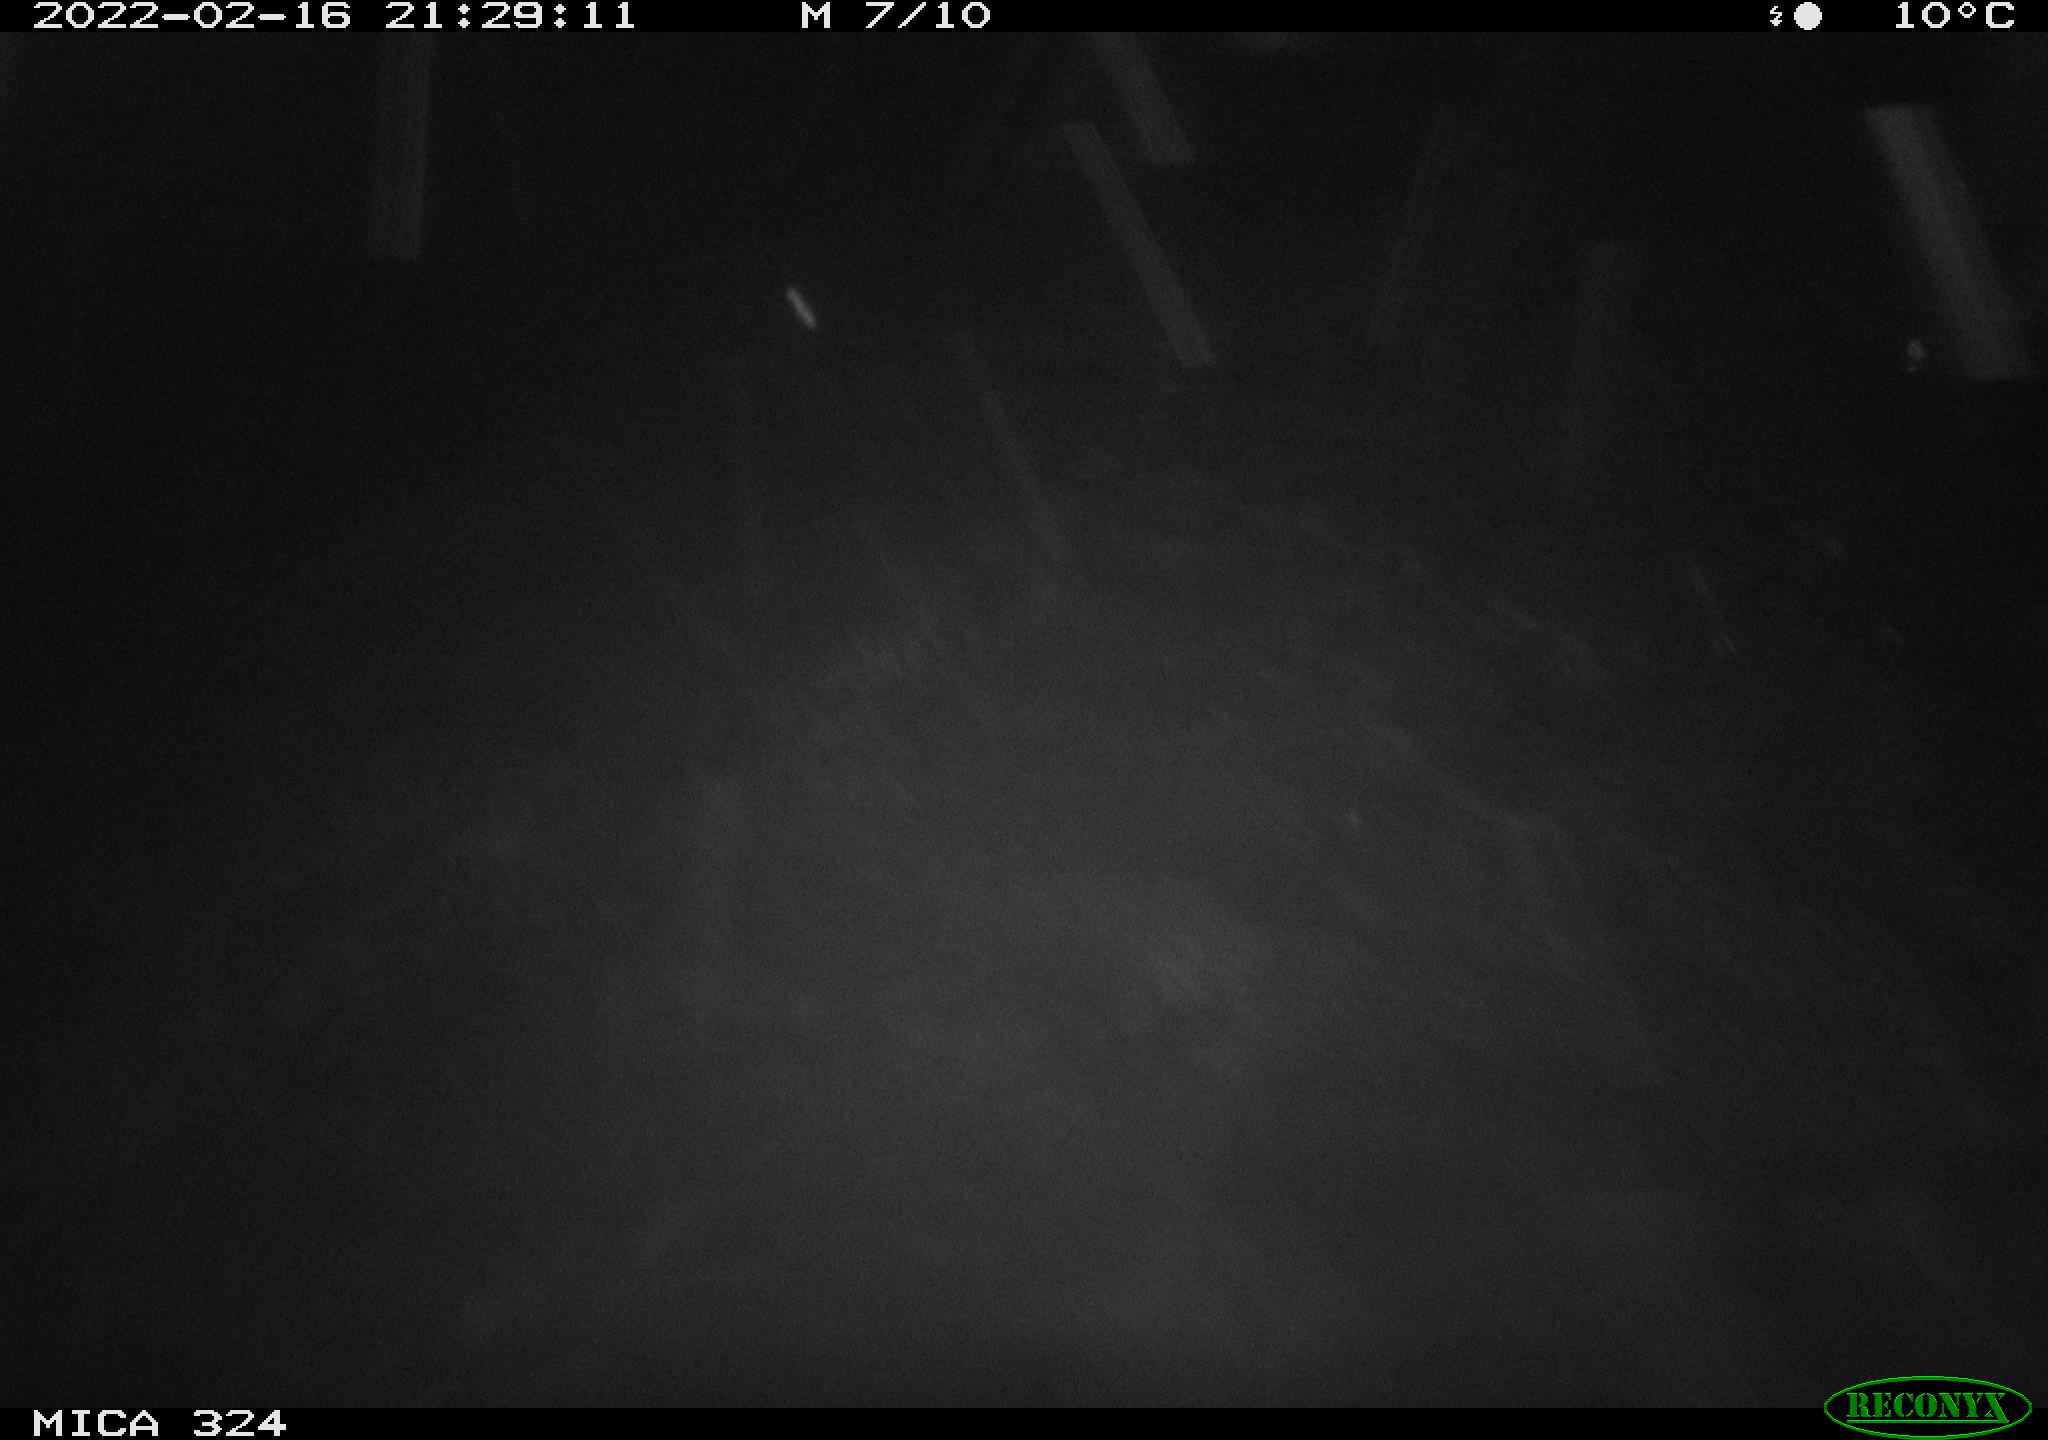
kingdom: Animalia
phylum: Chordata
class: Mammalia
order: Rodentia
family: Cricetidae
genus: Ondatra
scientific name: Ondatra zibethicus
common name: Muskrat
